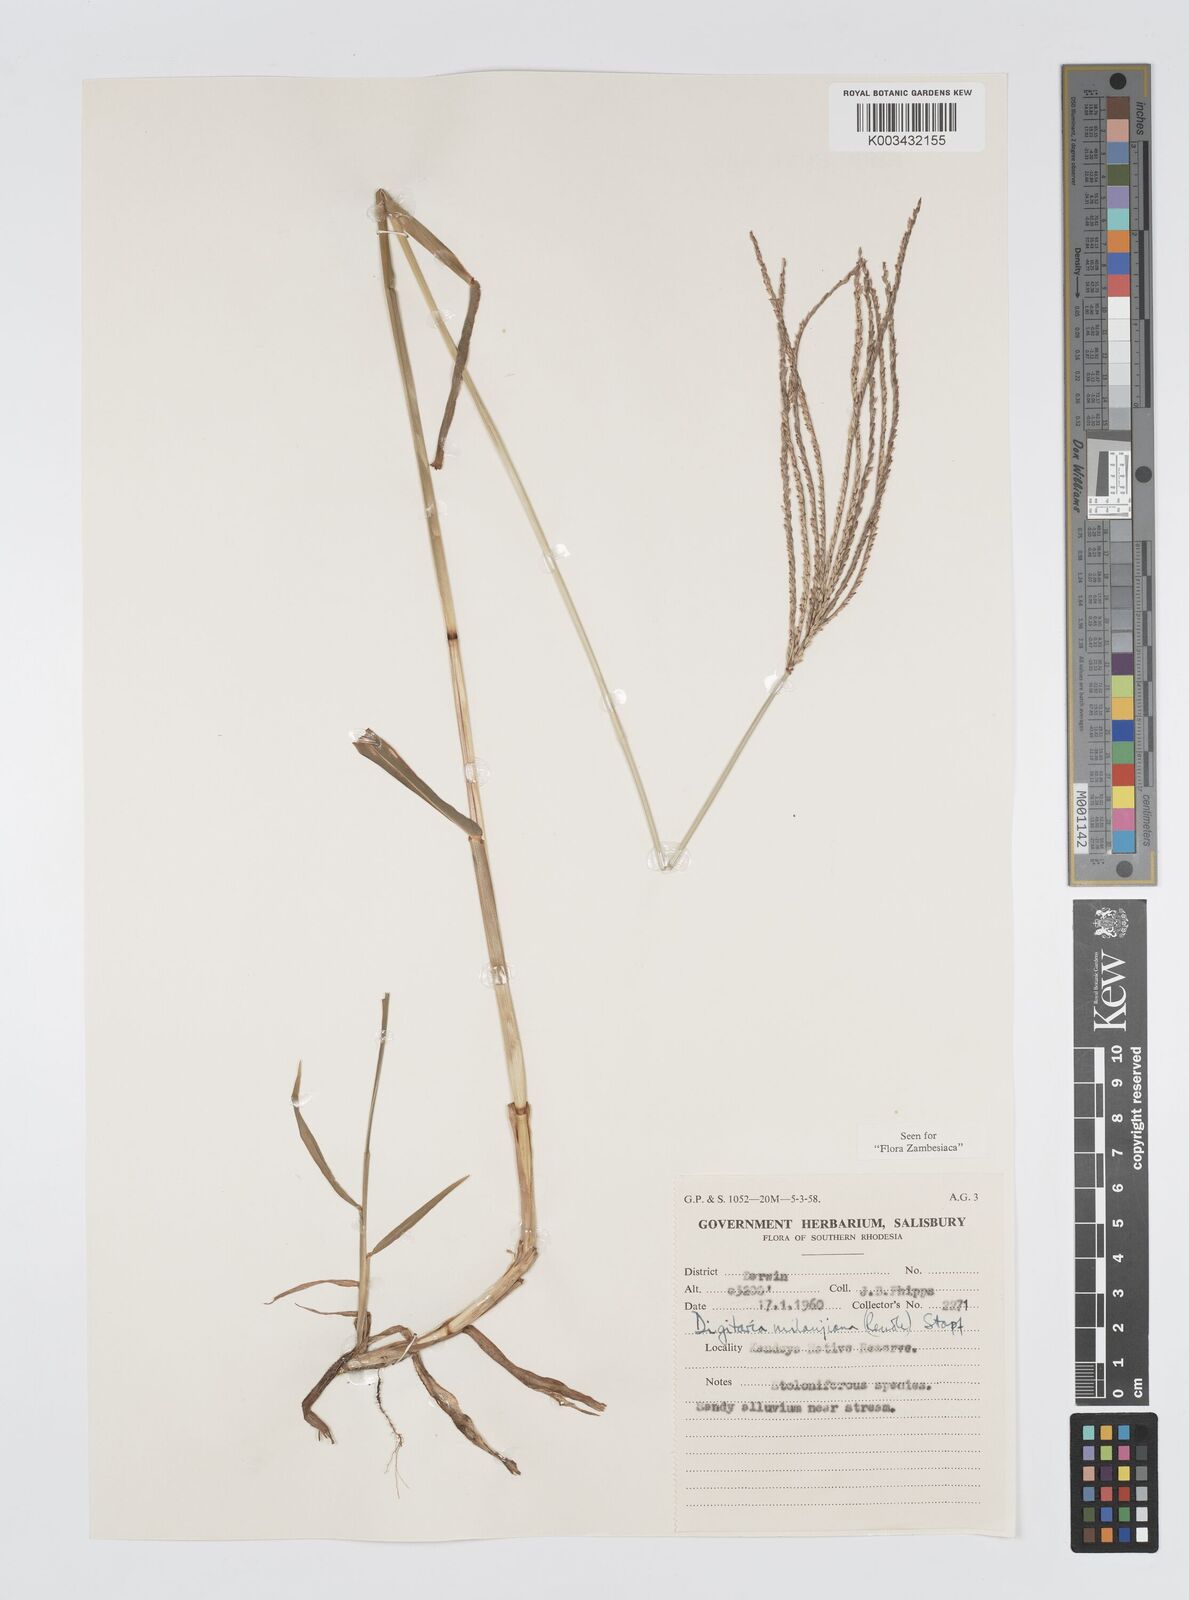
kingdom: Plantae
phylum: Tracheophyta
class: Liliopsida
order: Poales
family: Poaceae
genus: Digitaria
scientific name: Digitaria milanjiana
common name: Madagascar crabgrass
